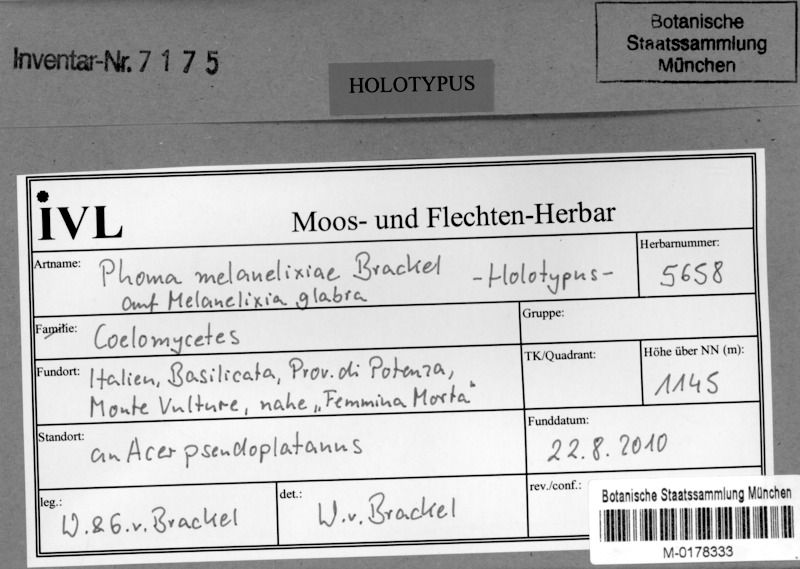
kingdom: Fungi
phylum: Ascomycota
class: Dothideomycetes
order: Pleosporales
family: Phaeosphaeriaceae
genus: Didymocyrtis
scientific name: Didymocyrtis melanelixiae
